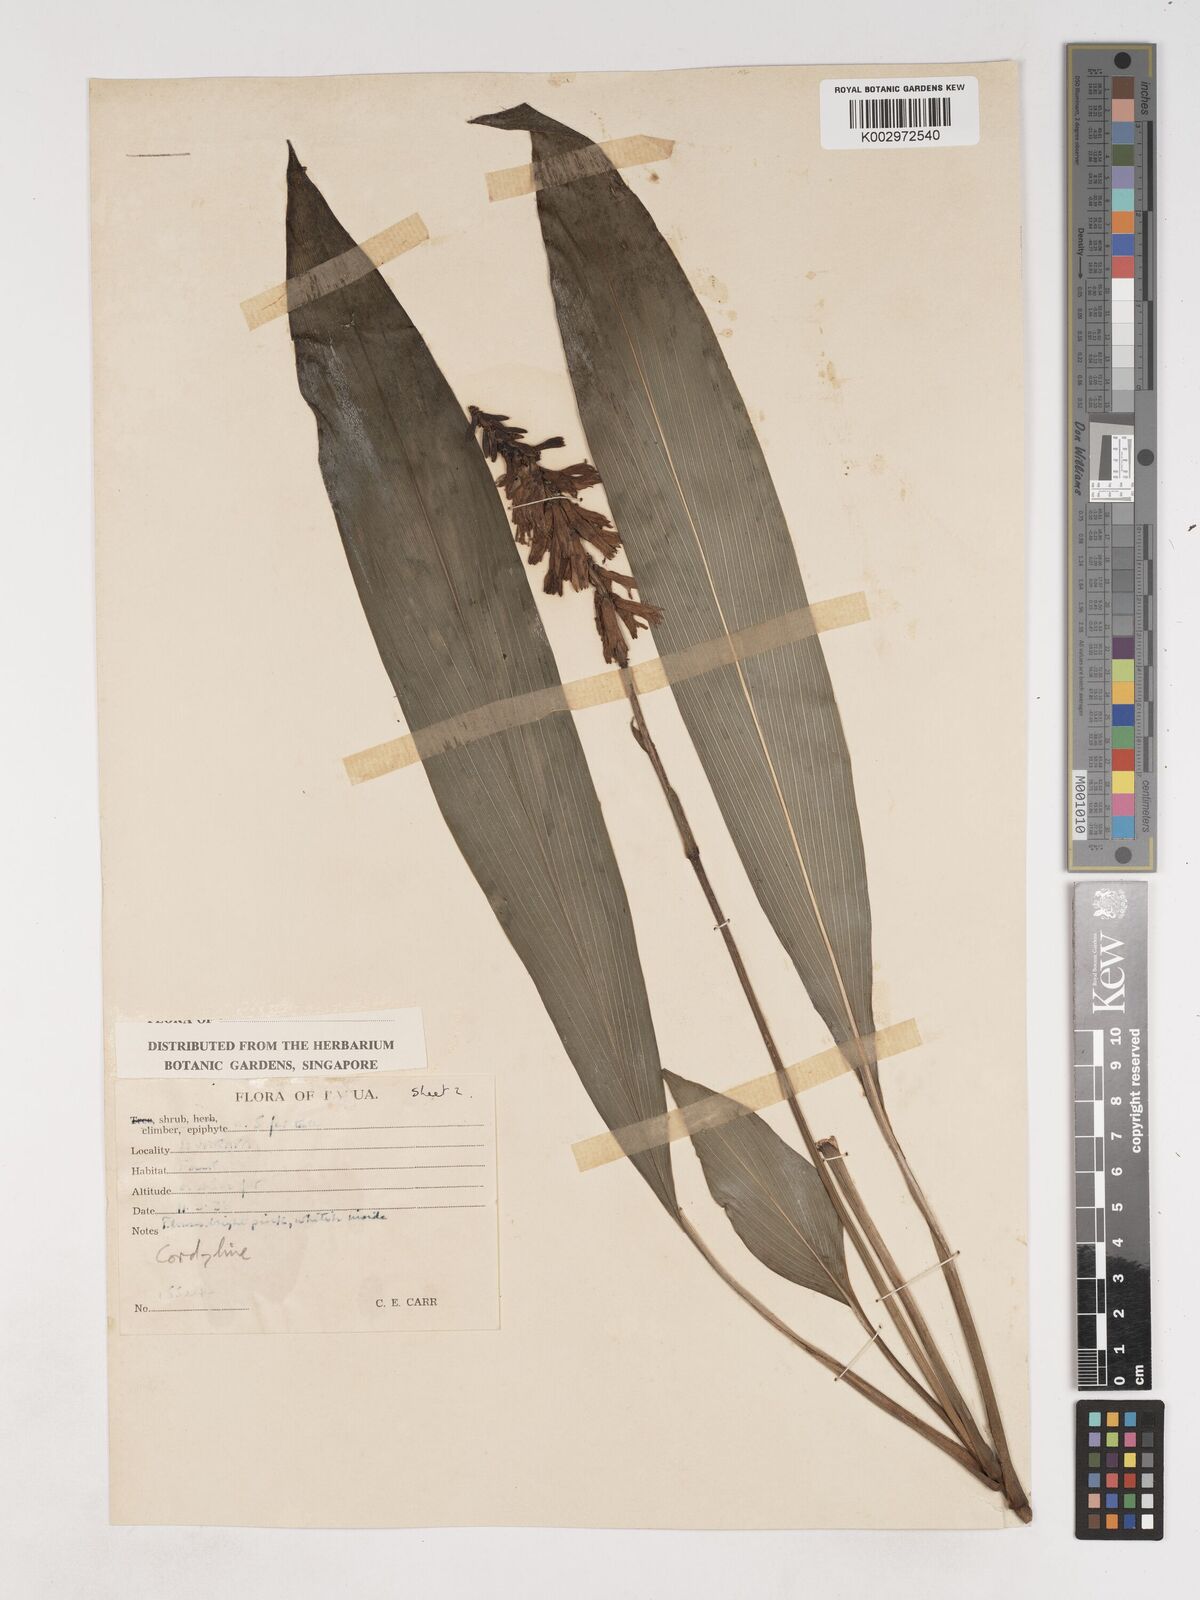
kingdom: Plantae
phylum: Tracheophyta
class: Liliopsida
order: Asparagales
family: Asparagaceae
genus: Cordyline
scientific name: Cordyline
